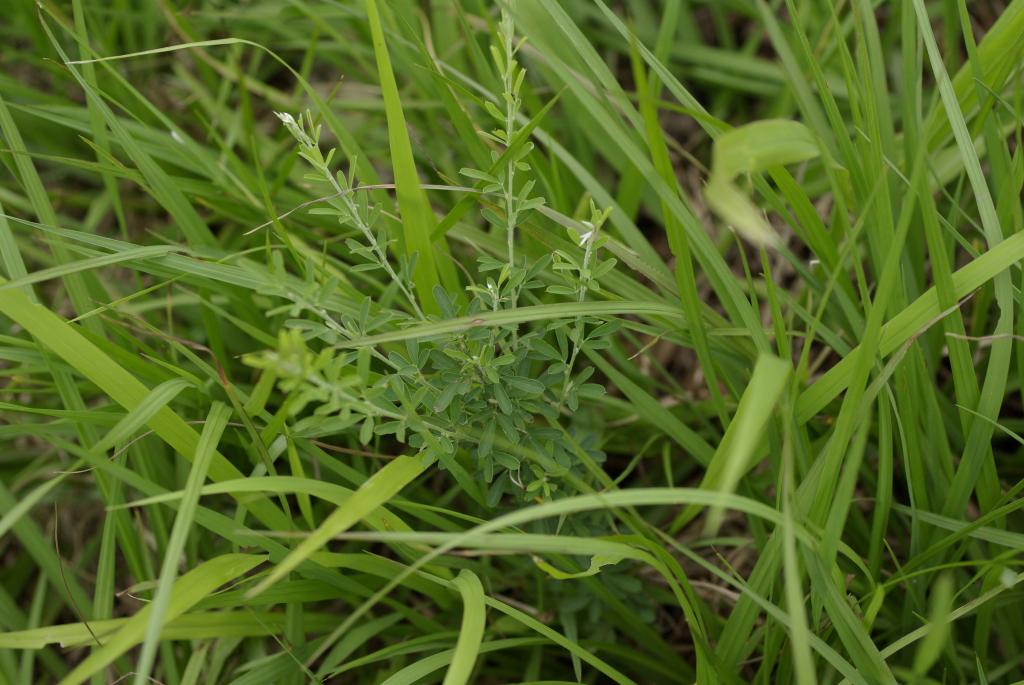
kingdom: Plantae
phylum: Tracheophyta
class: Magnoliopsida
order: Fabales
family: Fabaceae
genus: Lespedeza
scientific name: Lespedeza cuneata
